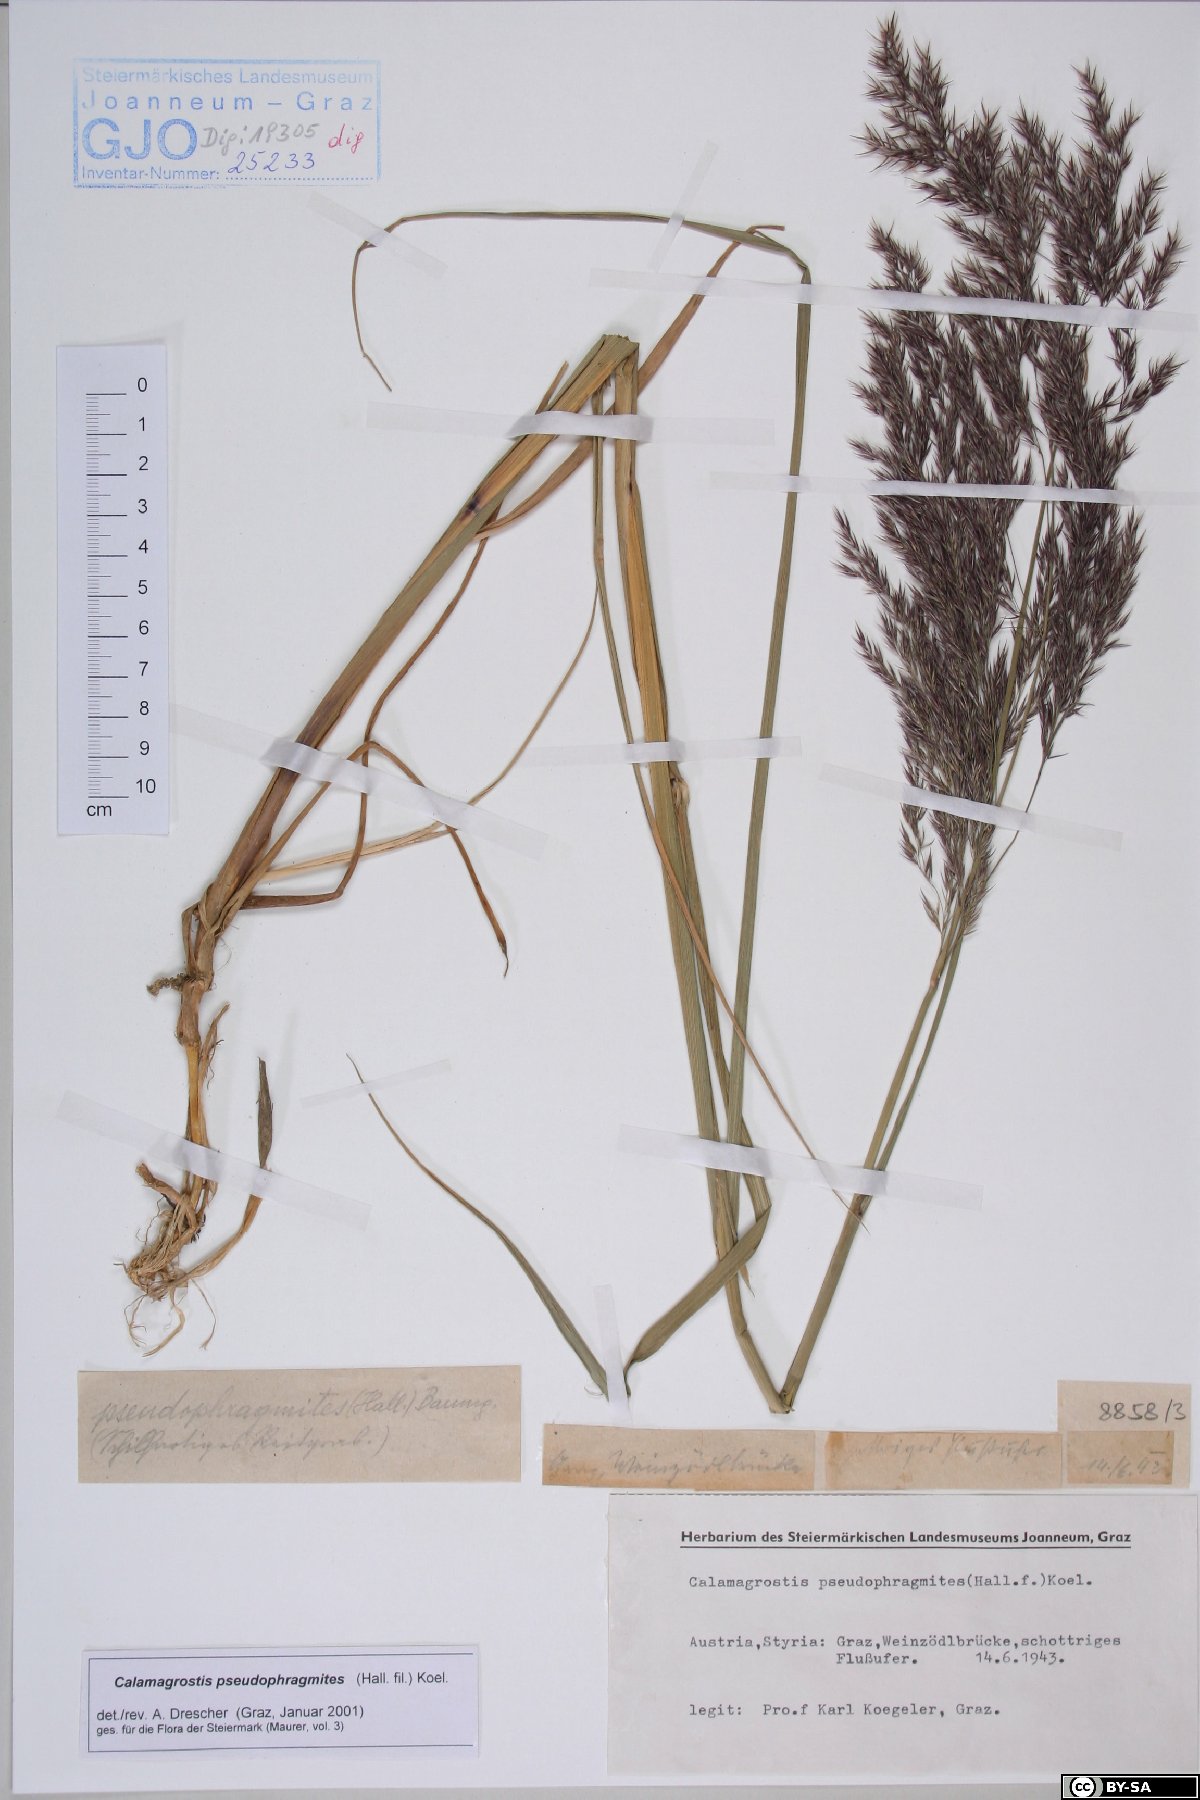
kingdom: Plantae
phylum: Tracheophyta
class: Liliopsida
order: Poales
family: Poaceae
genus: Calamagrostis
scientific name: Calamagrostis pseudophragmites
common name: Coastal small-reed
